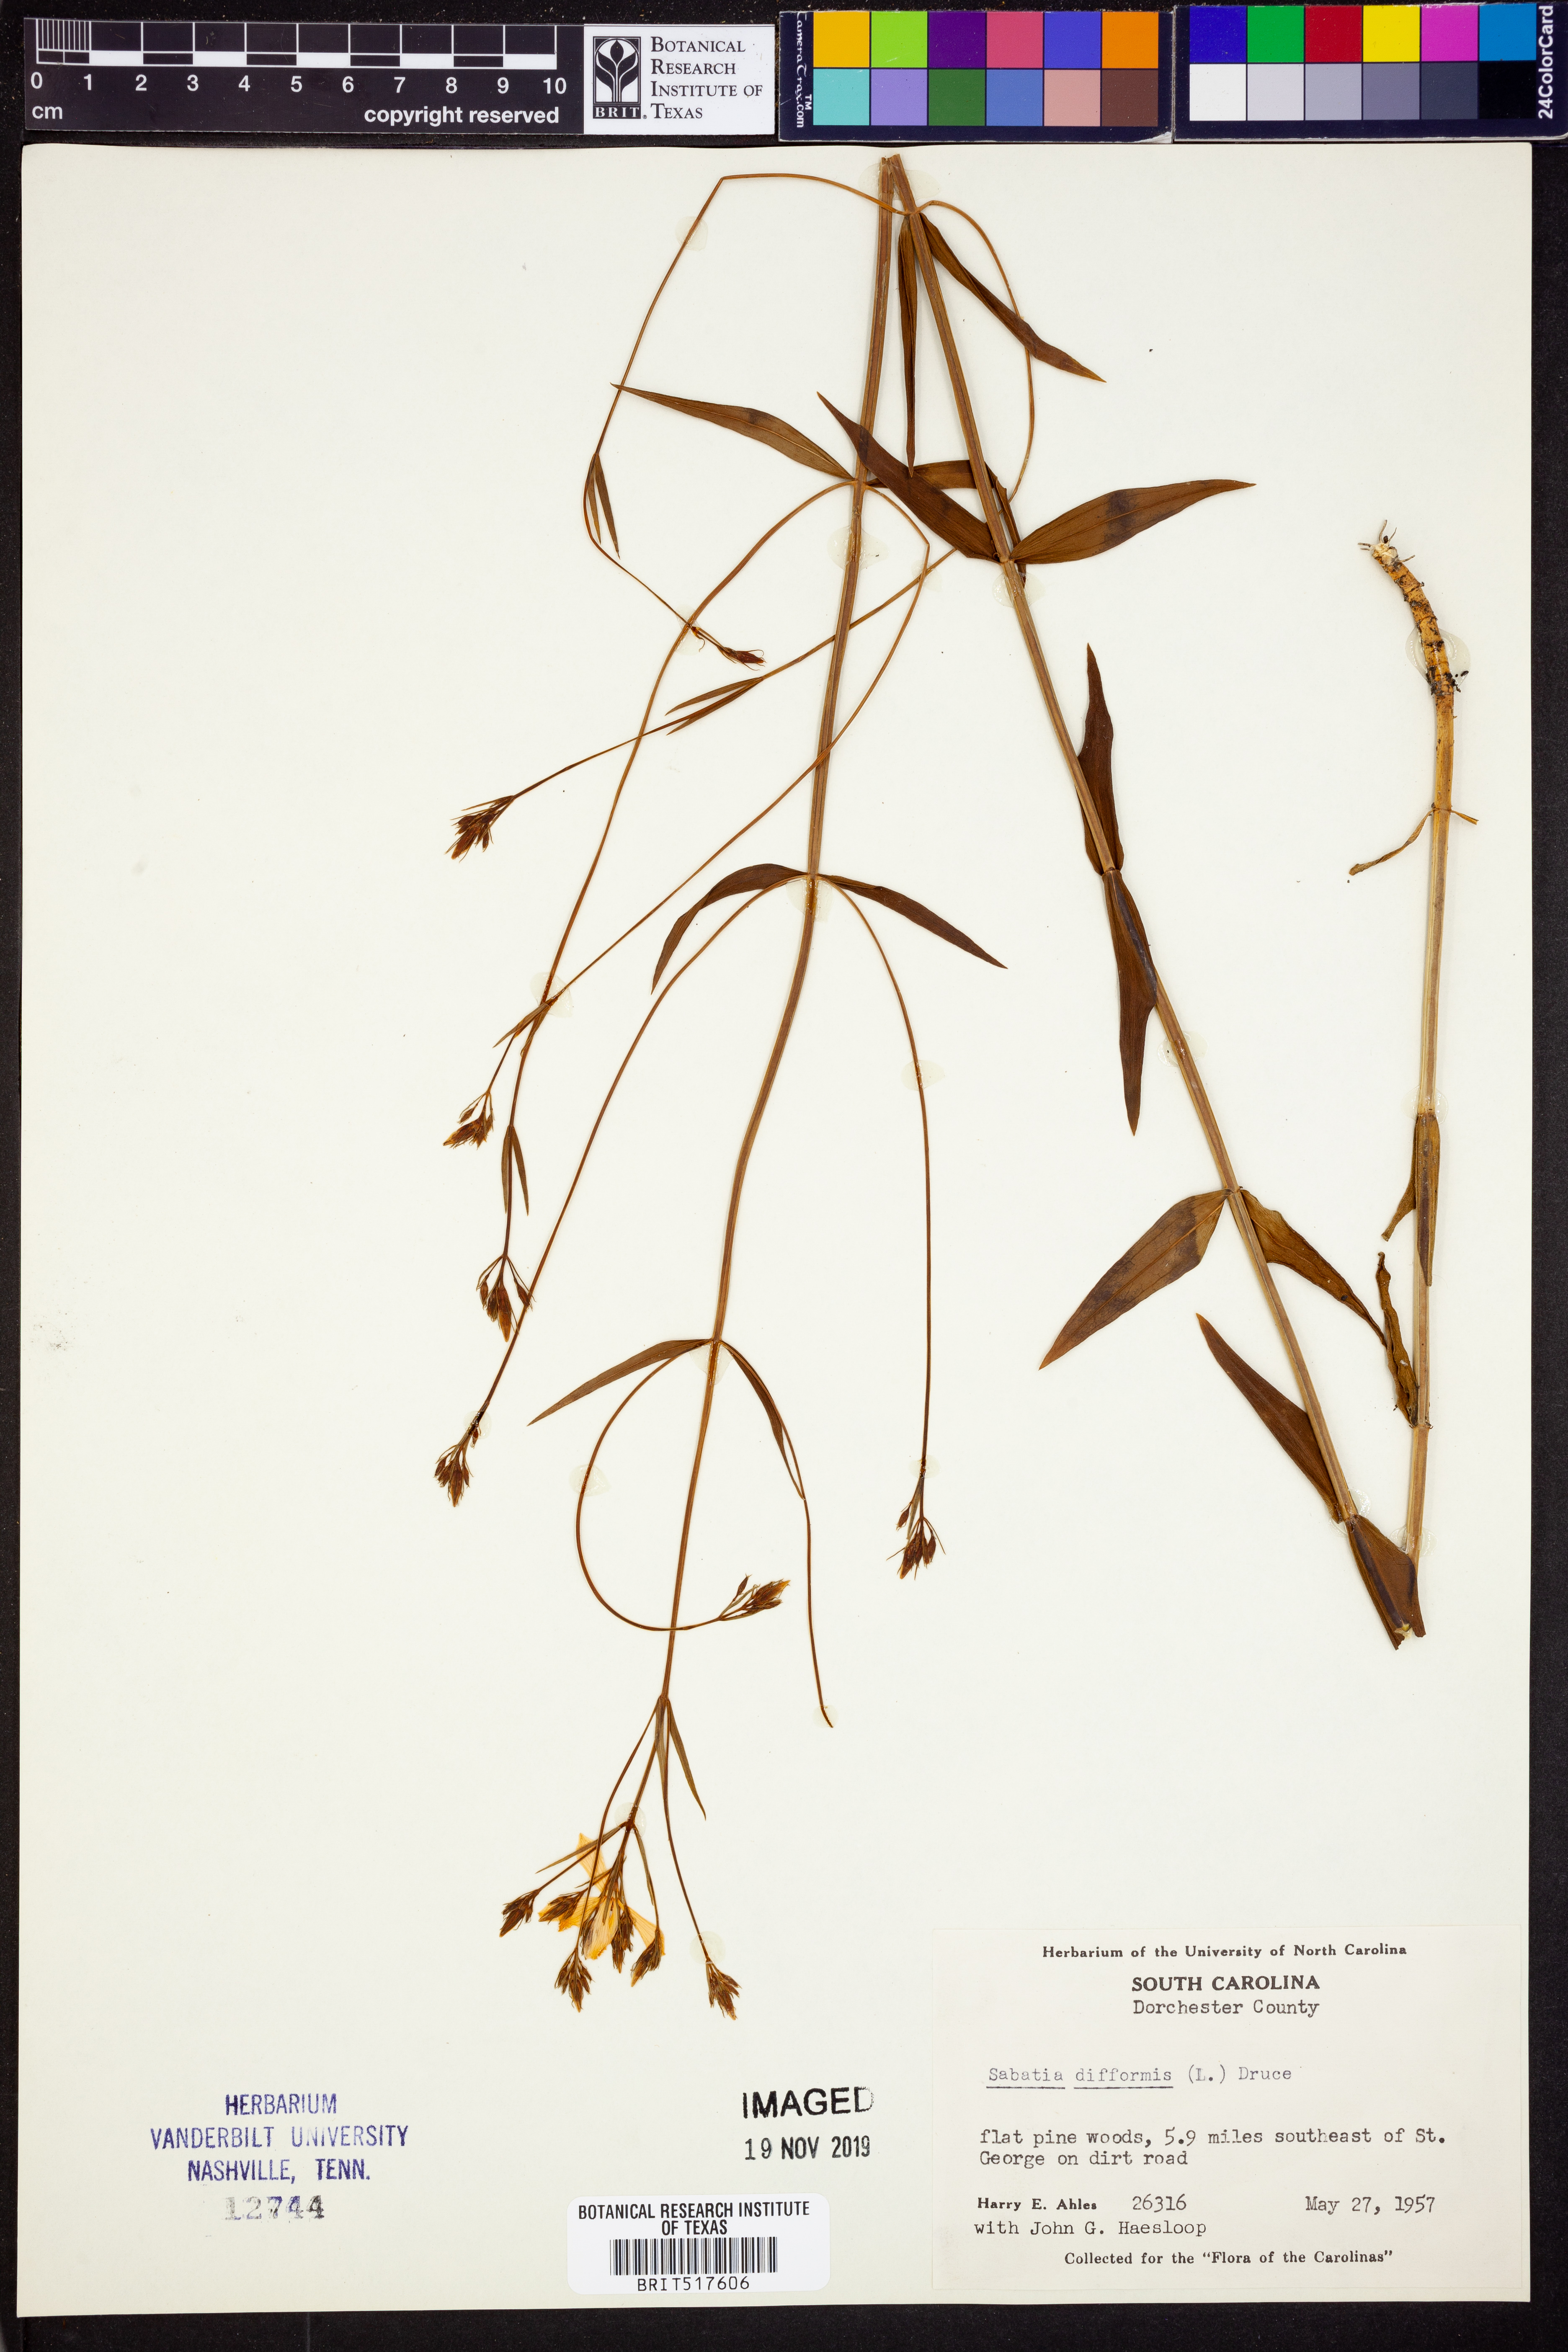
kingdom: Plantae
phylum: Tracheophyta
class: Magnoliopsida
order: Gentianales
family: Gentianaceae
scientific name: Gentianaceae
